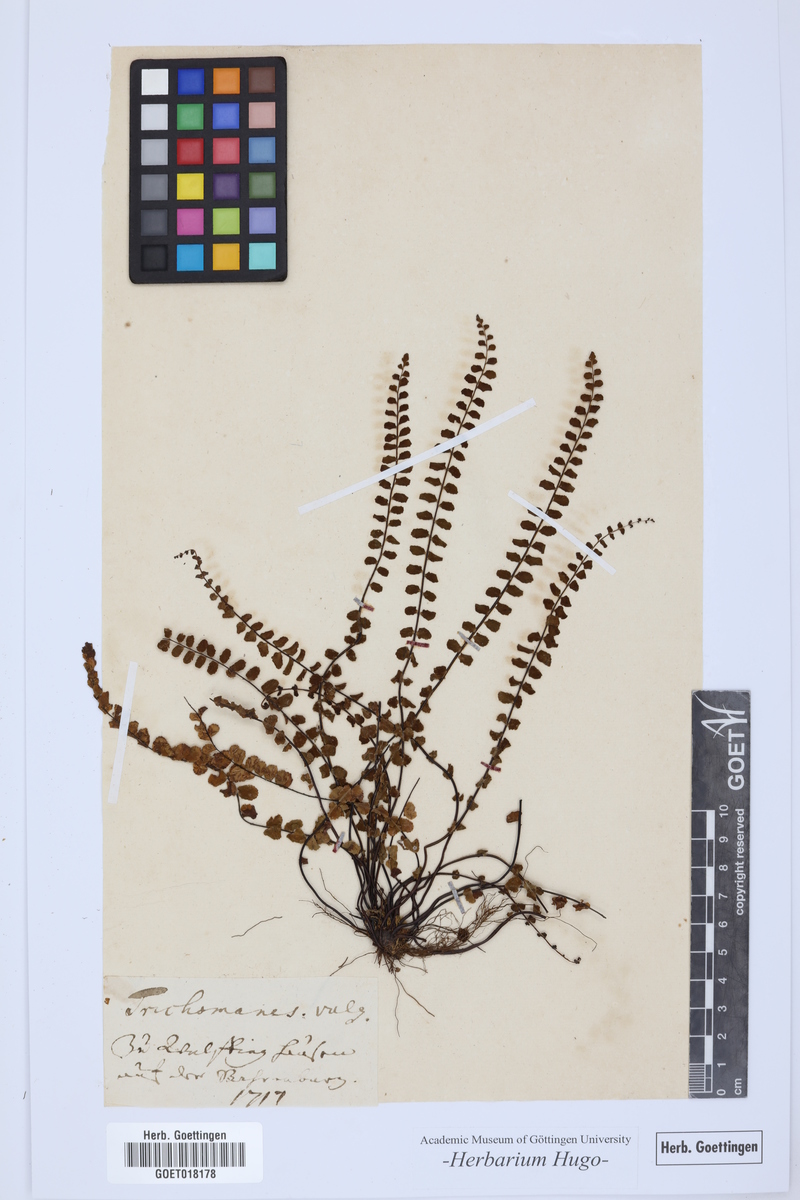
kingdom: Plantae
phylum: Tracheophyta
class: Polypodiopsida
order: Hymenophyllales
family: Hymenophyllaceae
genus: Trichomanes
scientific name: Trichomanes
